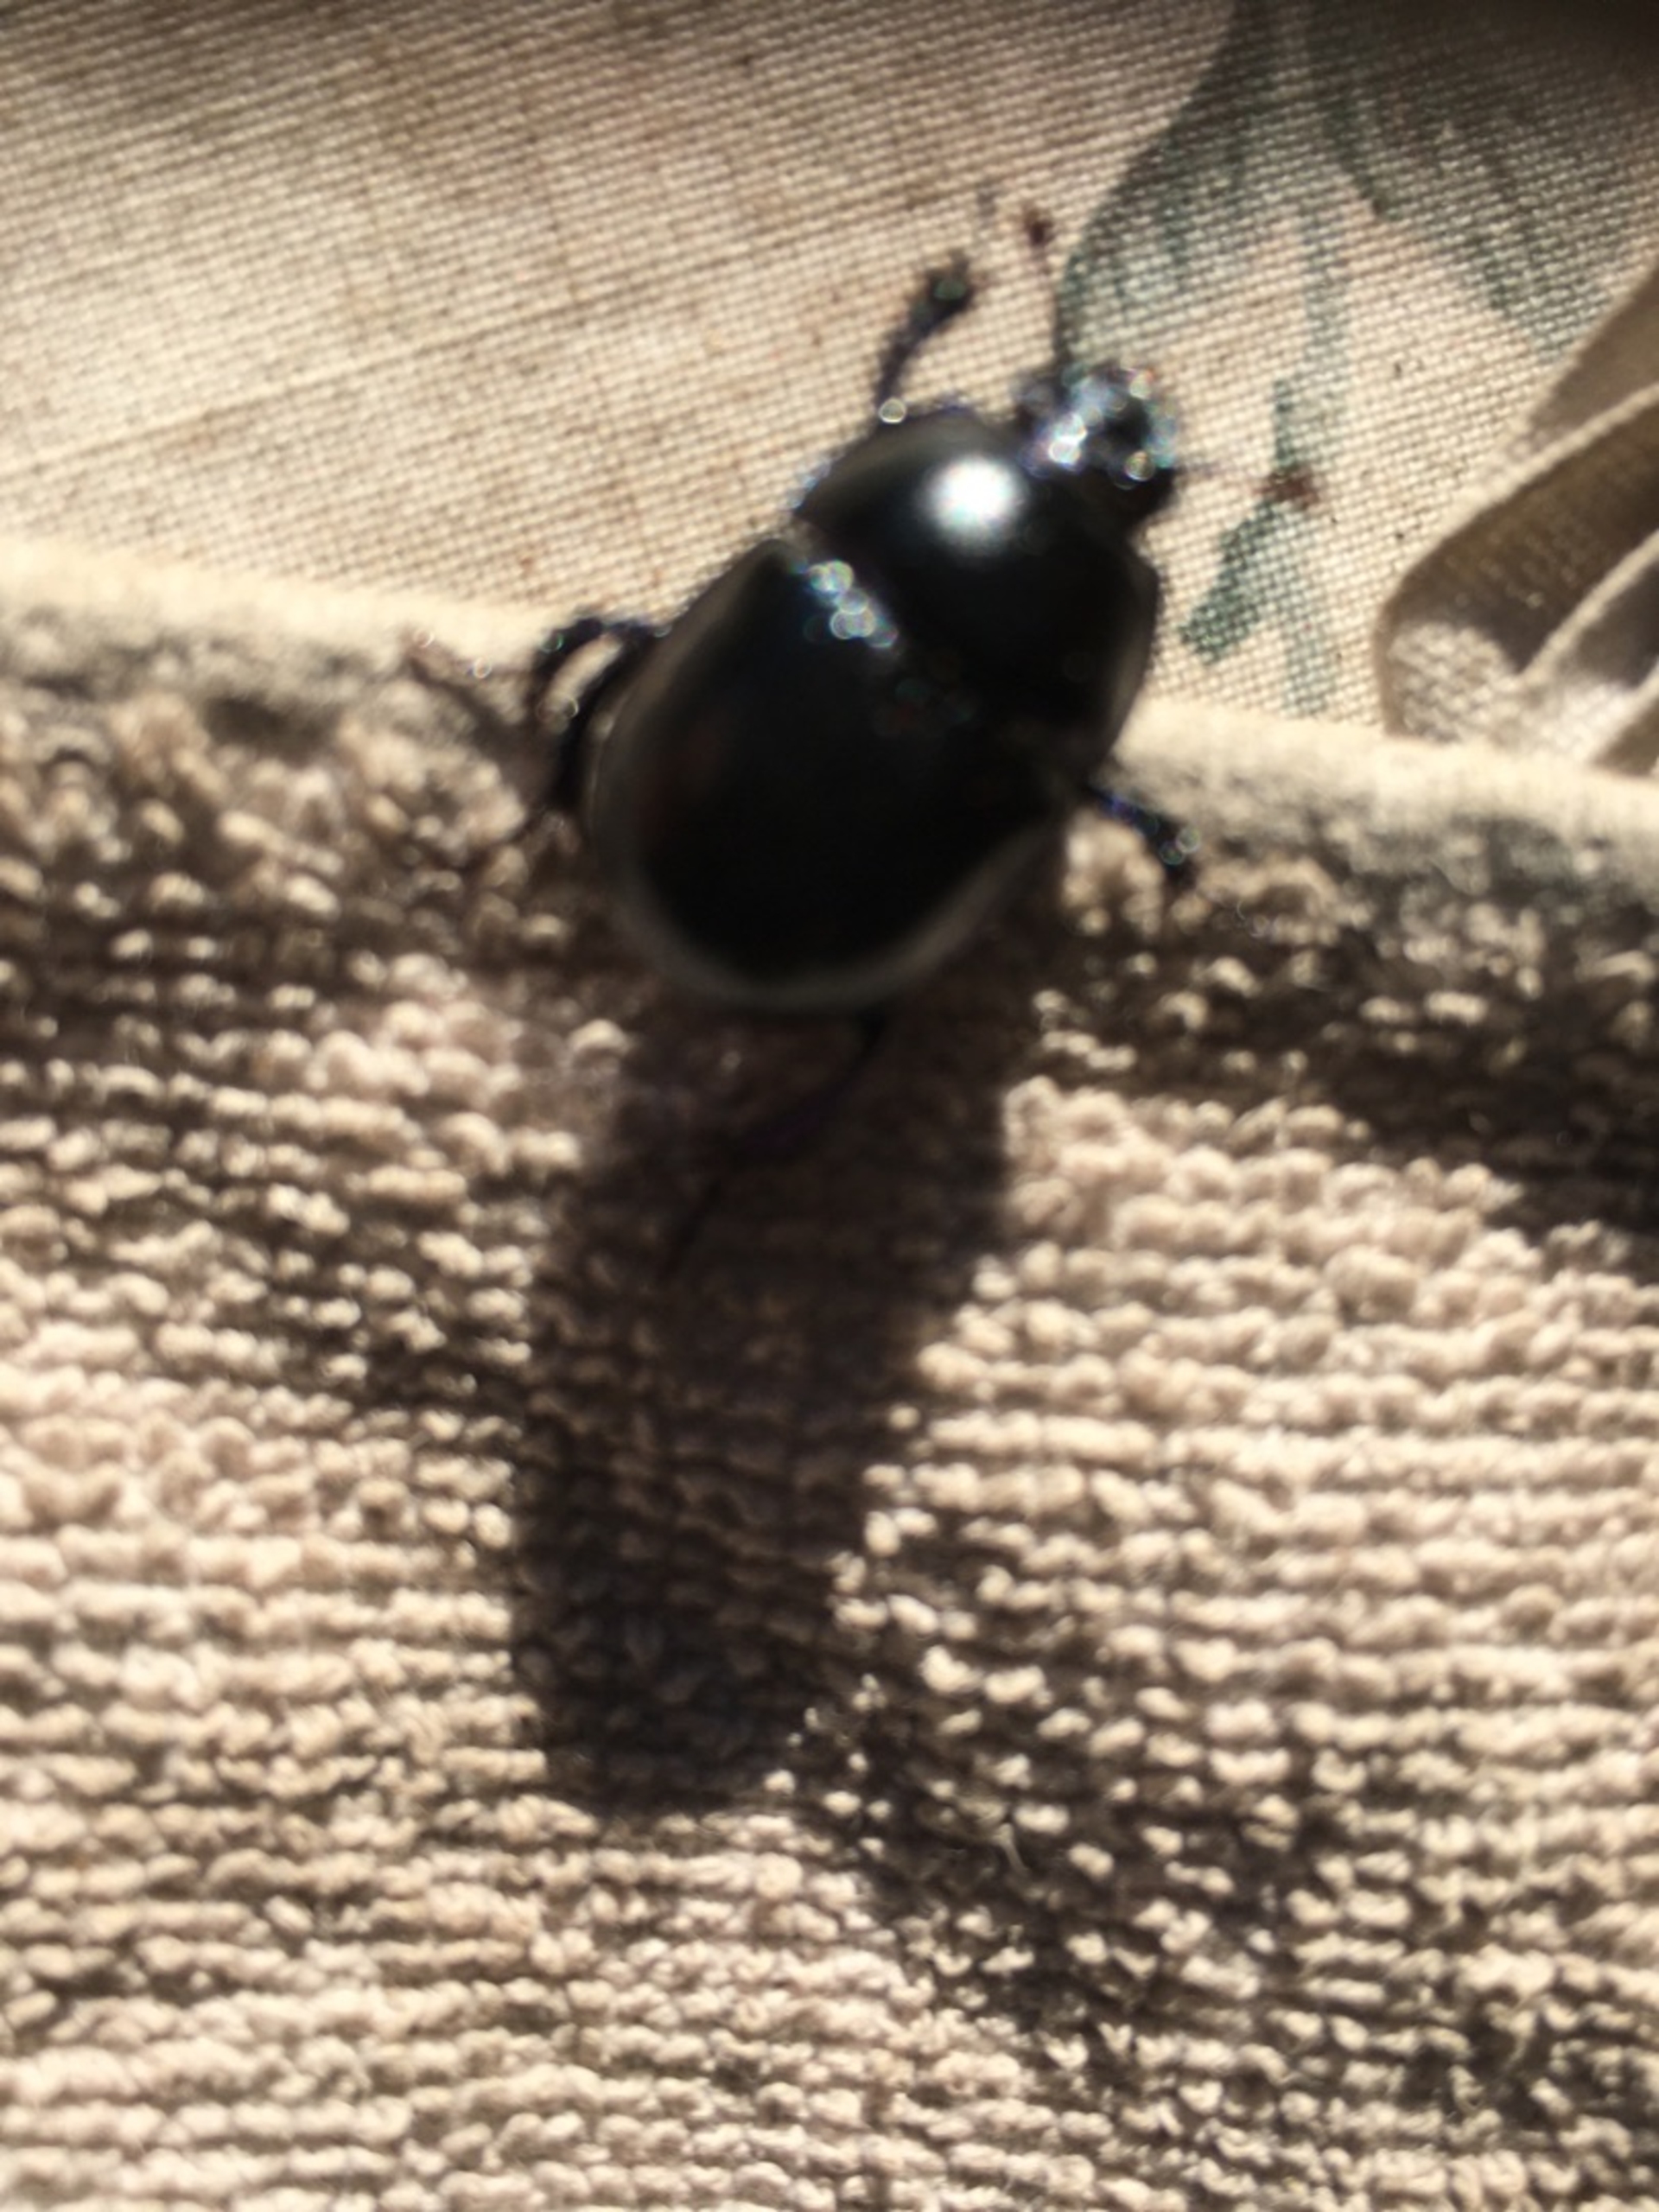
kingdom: Animalia
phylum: Arthropoda
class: Insecta
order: Coleoptera
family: Geotrupidae
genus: Anoplotrupes
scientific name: Anoplotrupes stercorosus
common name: Skovskarnbasse
